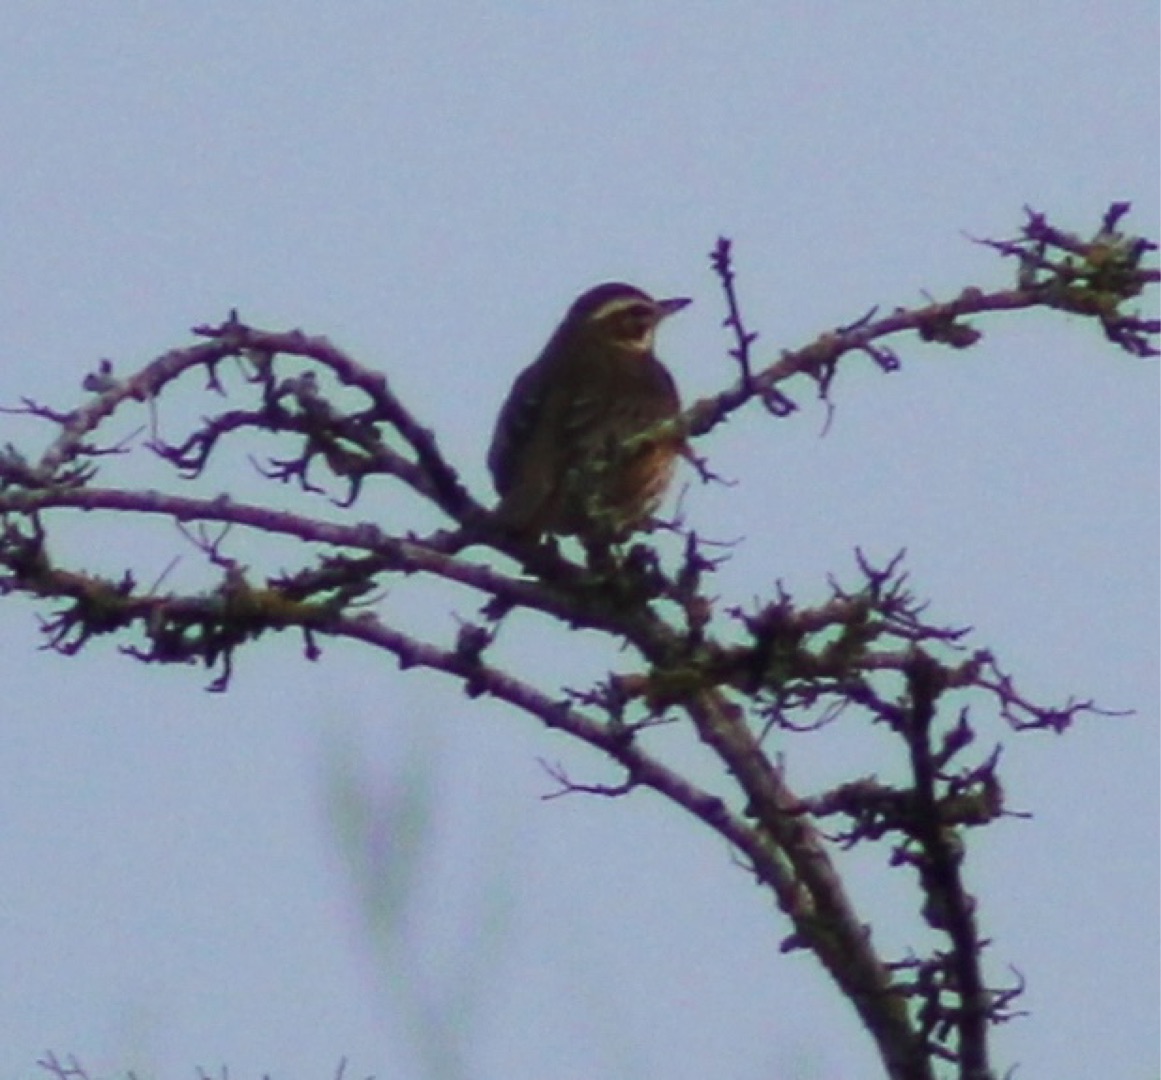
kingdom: Animalia
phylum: Chordata
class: Aves
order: Passeriformes
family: Turdidae
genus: Turdus
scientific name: Turdus iliacus
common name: Vindrossel
